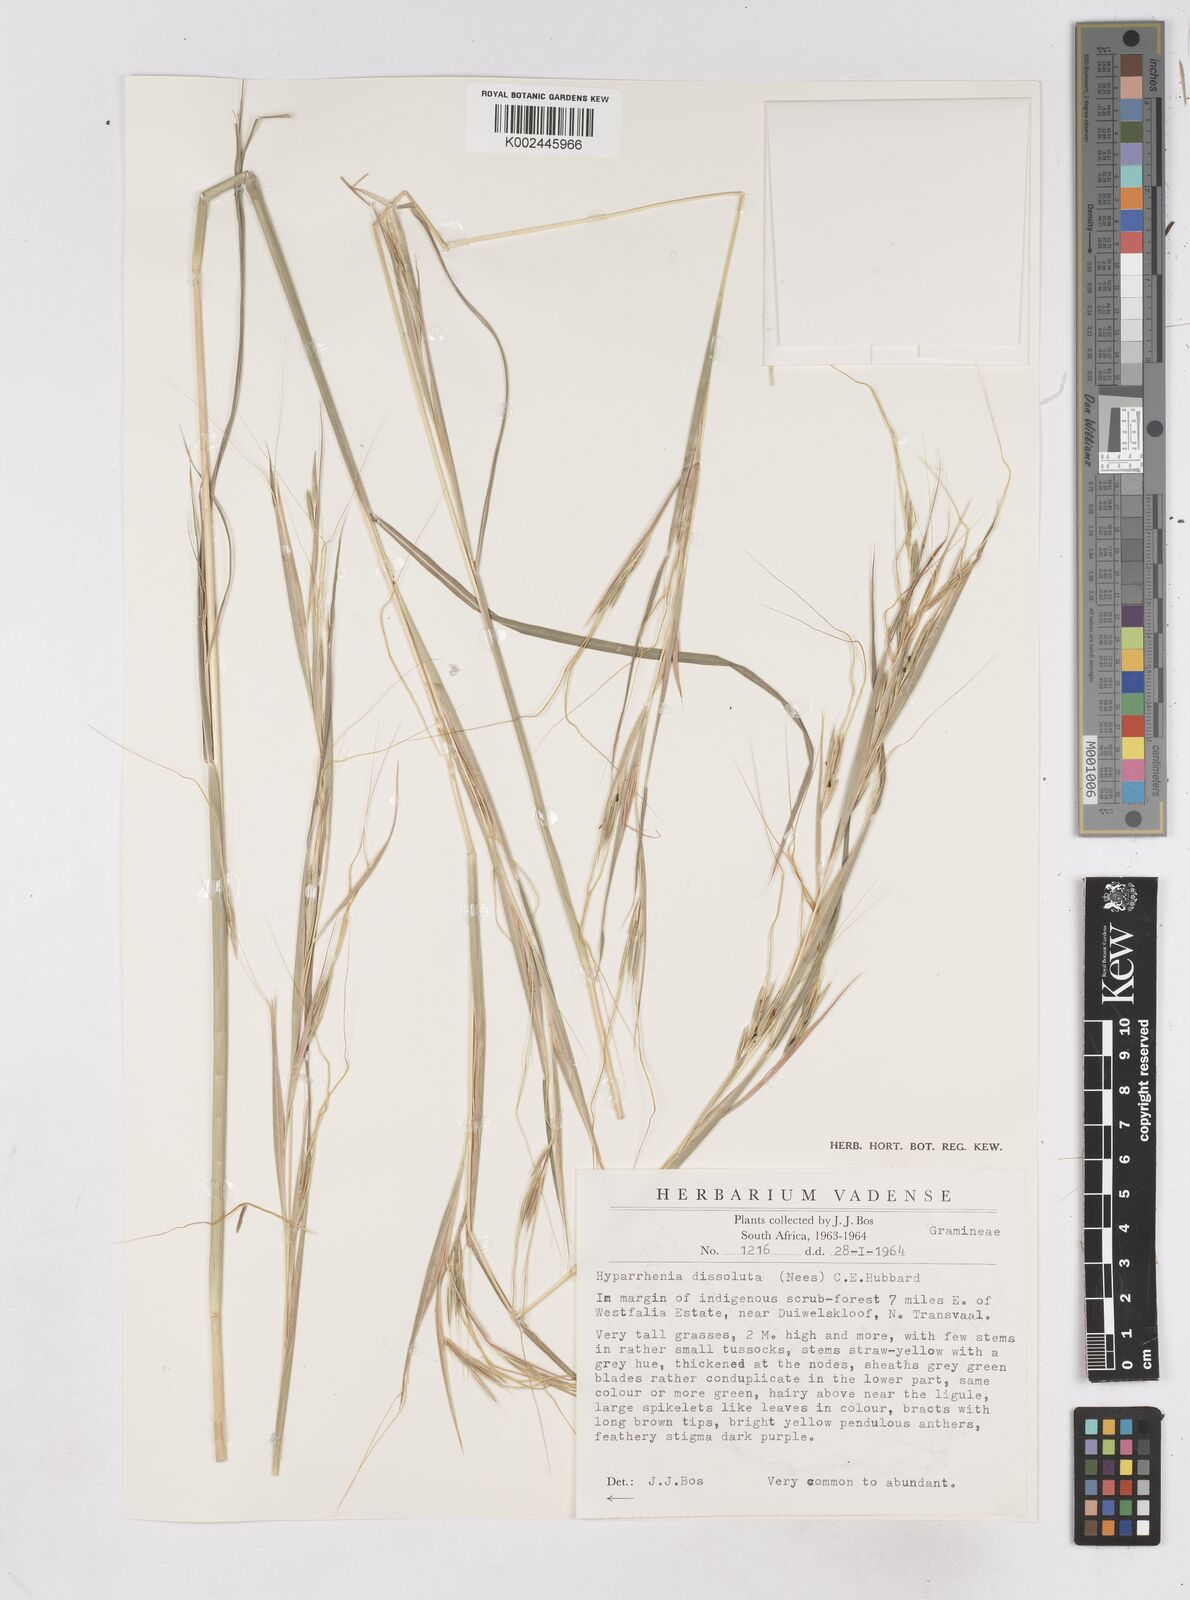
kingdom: Plantae
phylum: Tracheophyta
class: Liliopsida
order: Poales
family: Poaceae
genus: Hyperthelia
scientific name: Hyperthelia dissoluta
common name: Yellow thatching grass
